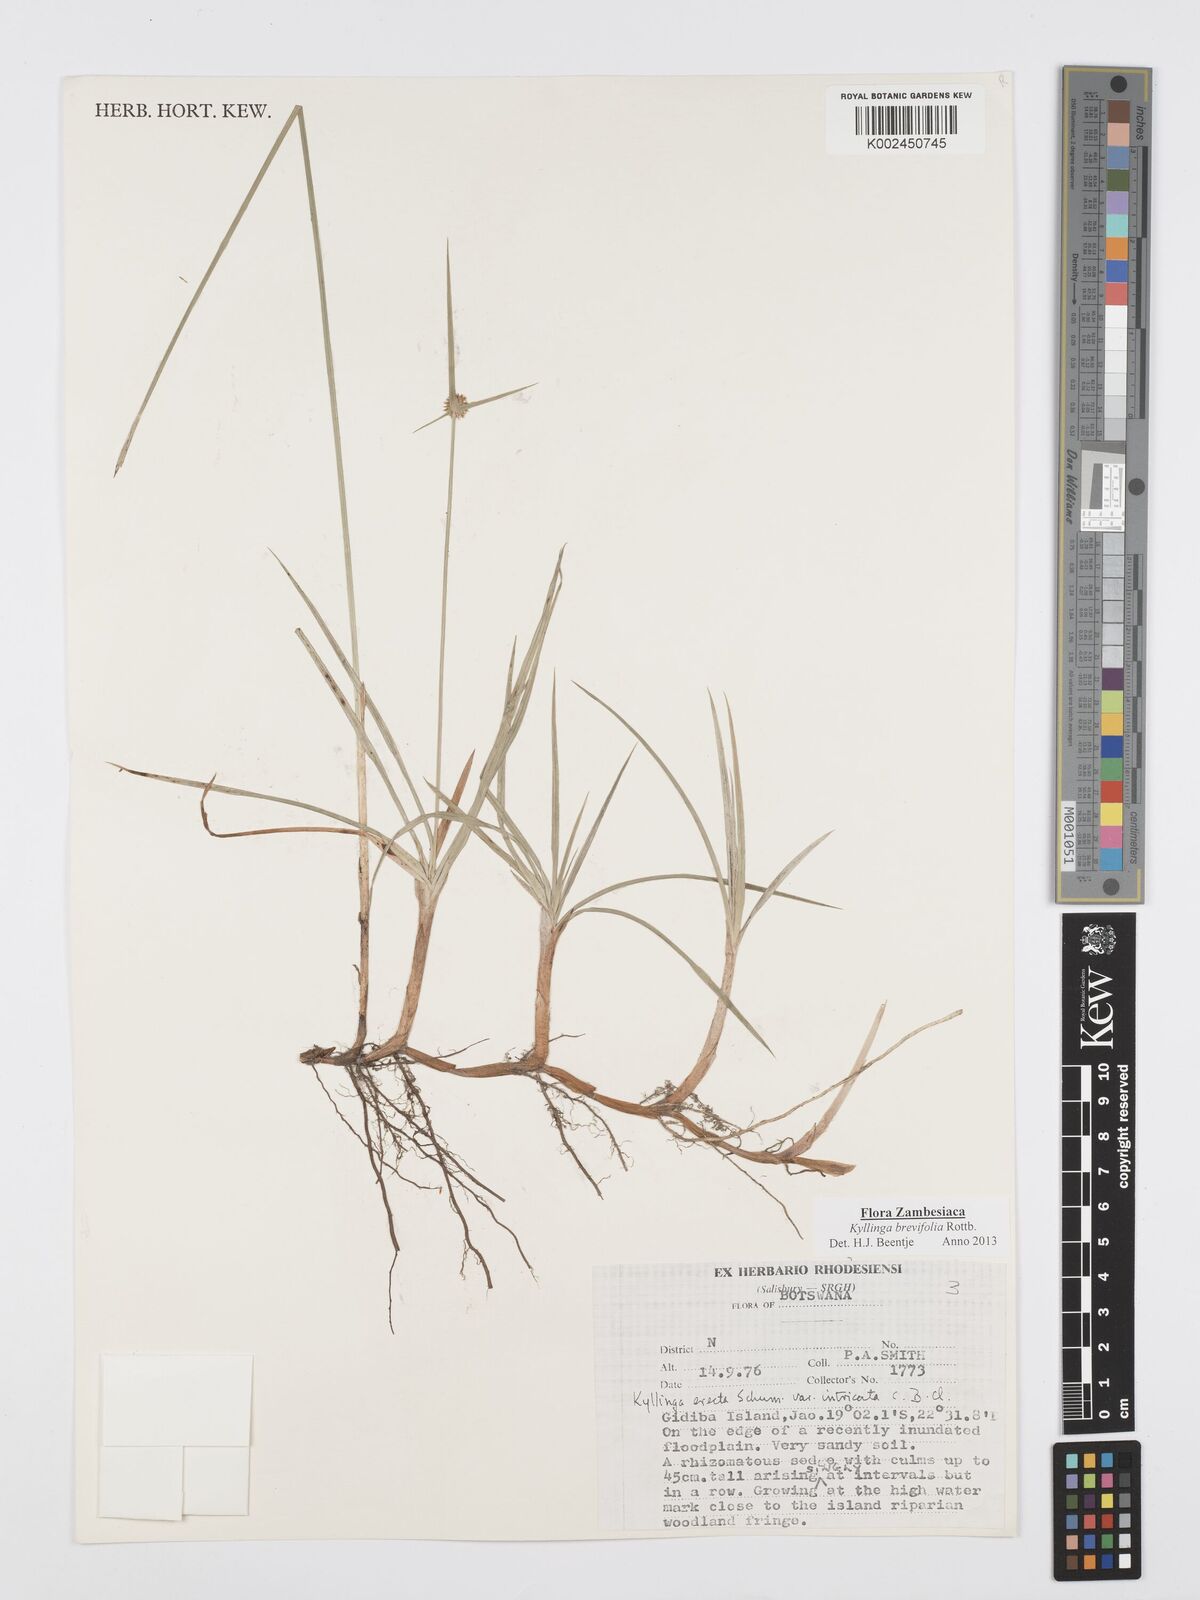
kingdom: Plantae
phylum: Tracheophyta
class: Liliopsida
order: Poales
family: Cyperaceae
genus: Cyperus
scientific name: Cyperus brevifolius
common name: Globe kyllinga
